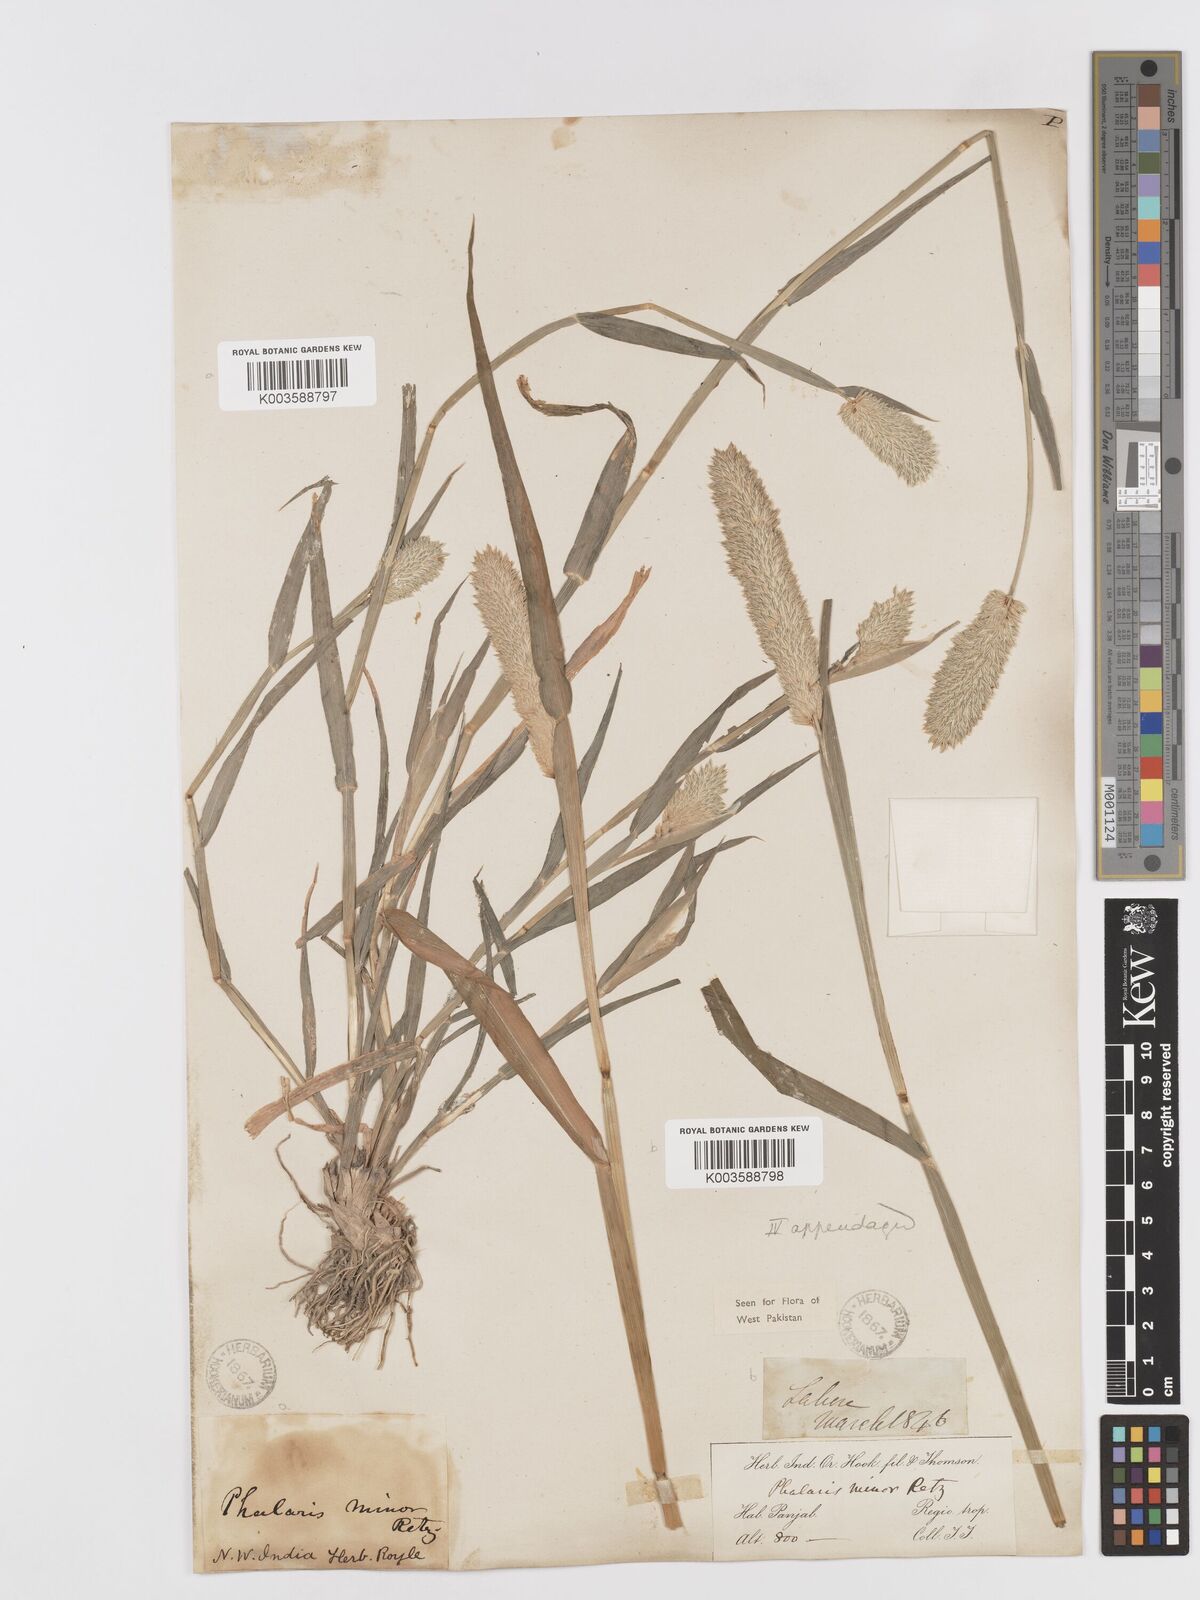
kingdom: Plantae
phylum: Tracheophyta
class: Liliopsida
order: Poales
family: Poaceae
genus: Phalaris
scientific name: Phalaris minor
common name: Littleseed canarygrass
